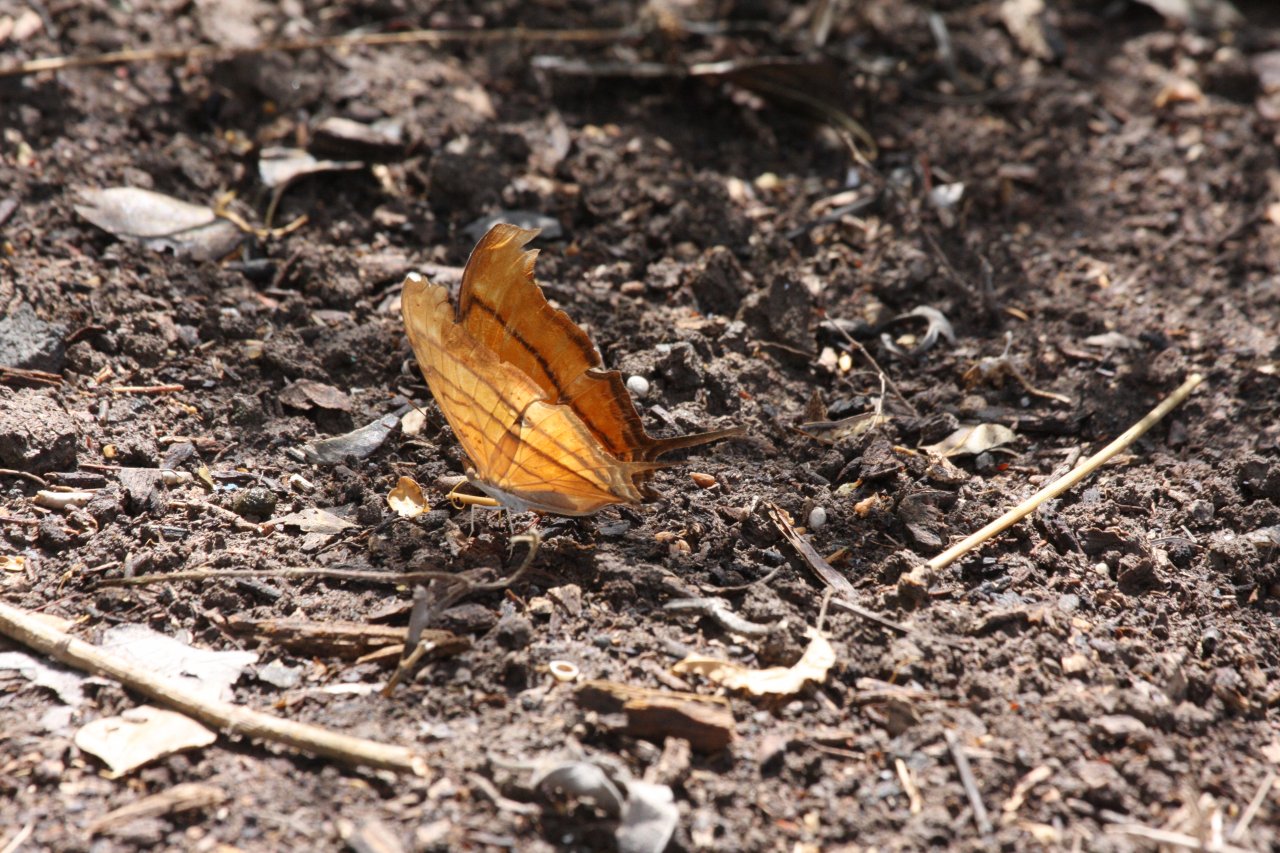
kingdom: Animalia
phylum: Arthropoda
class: Insecta
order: Lepidoptera
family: Nymphalidae
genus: Marpesia
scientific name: Marpesia petreus
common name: Ruddy Daggerwing
